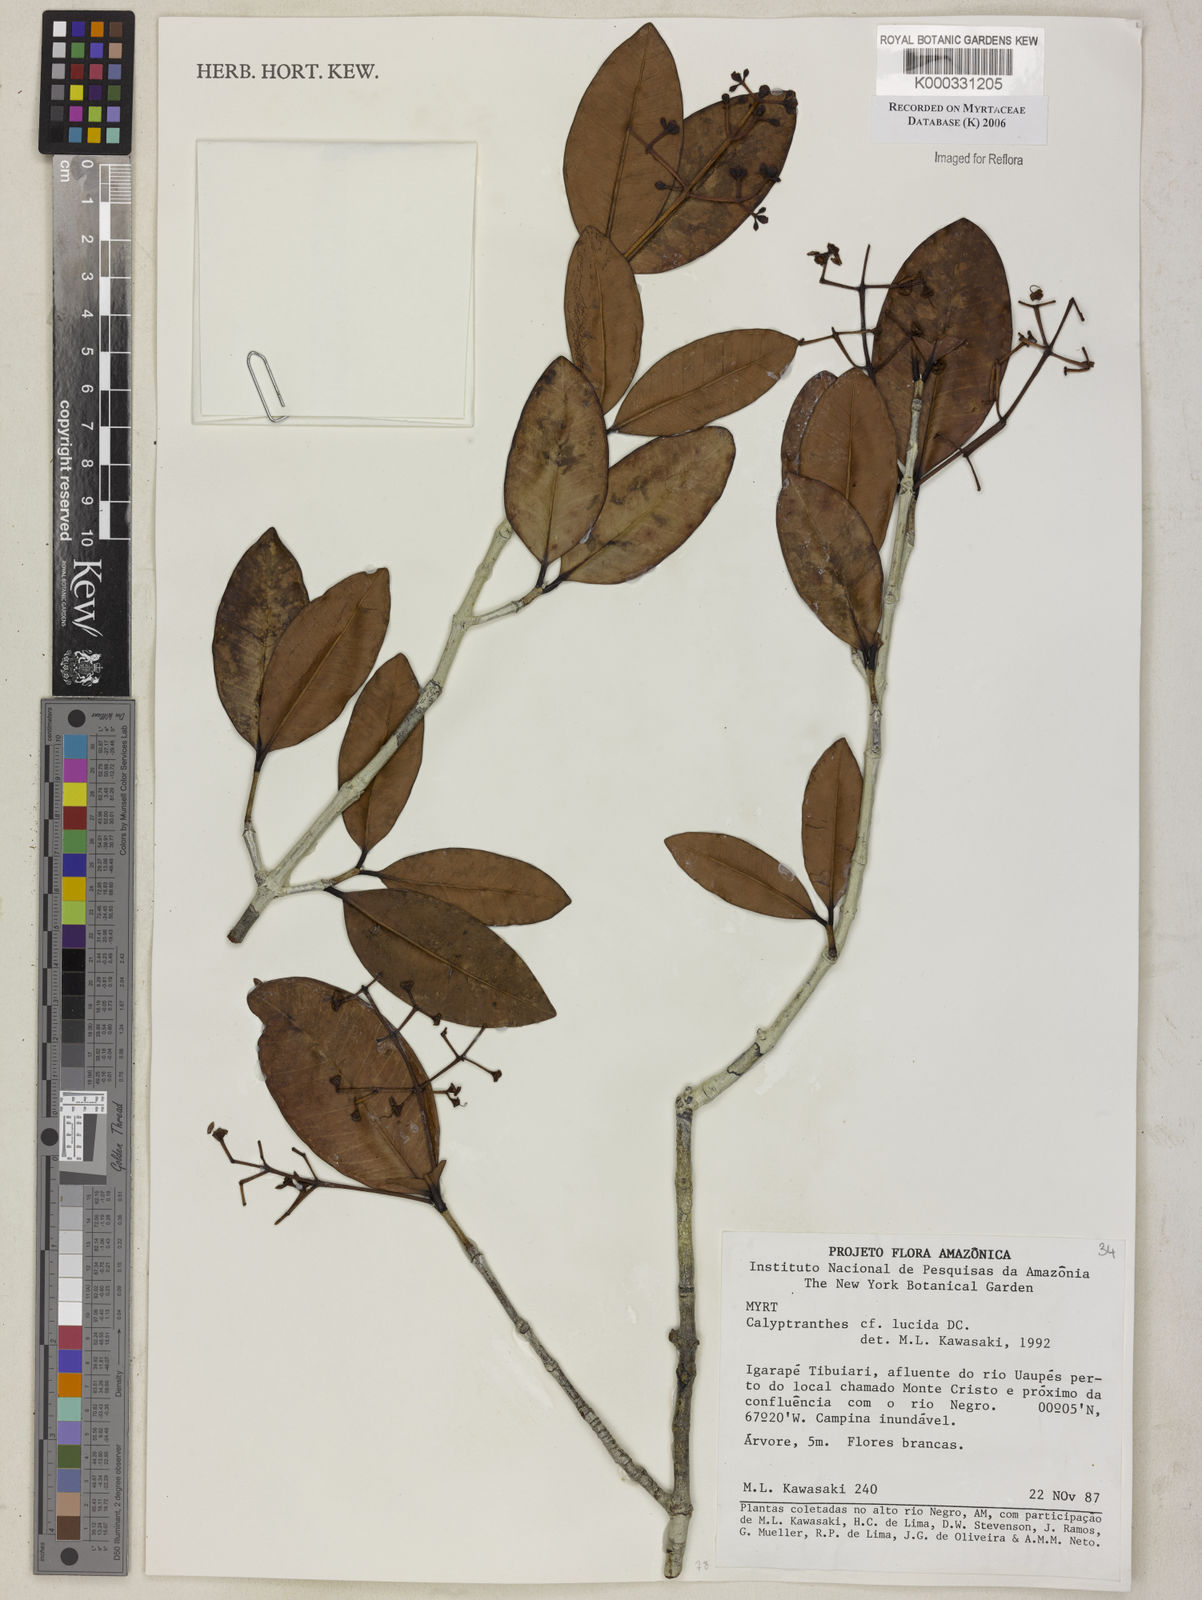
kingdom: Plantae
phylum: Tracheophyta
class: Magnoliopsida
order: Myrtales
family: Myrtaceae
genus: Myrcia
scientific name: Myrcia neolucida
